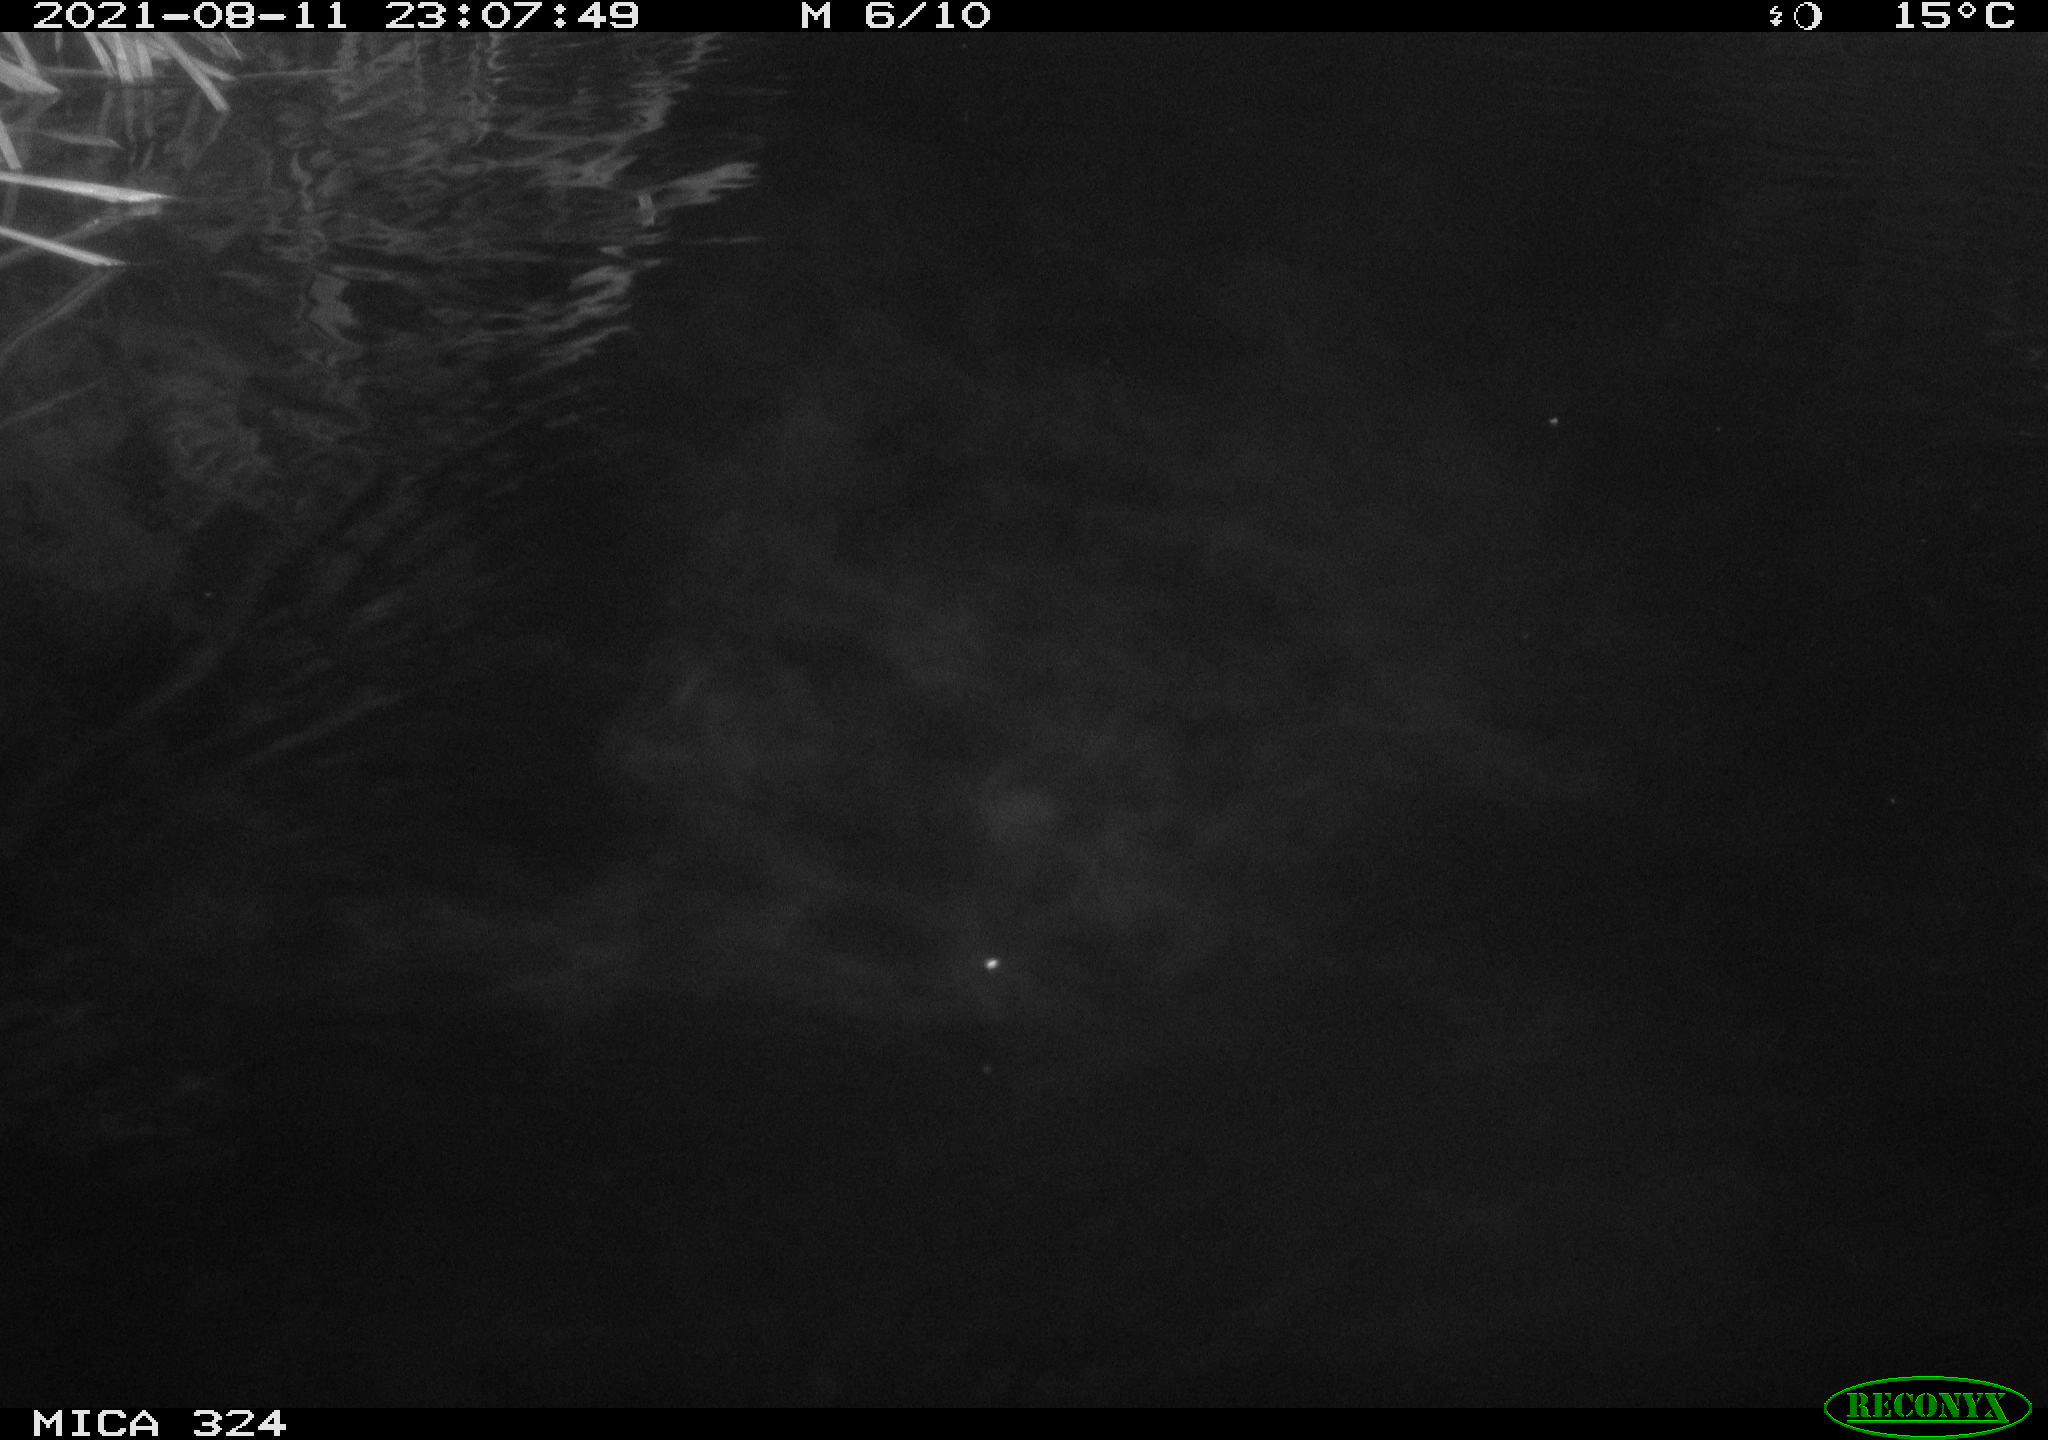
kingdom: Animalia
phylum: Chordata
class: Mammalia
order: Rodentia
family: Cricetidae
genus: Ondatra
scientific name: Ondatra zibethicus
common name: Muskrat
